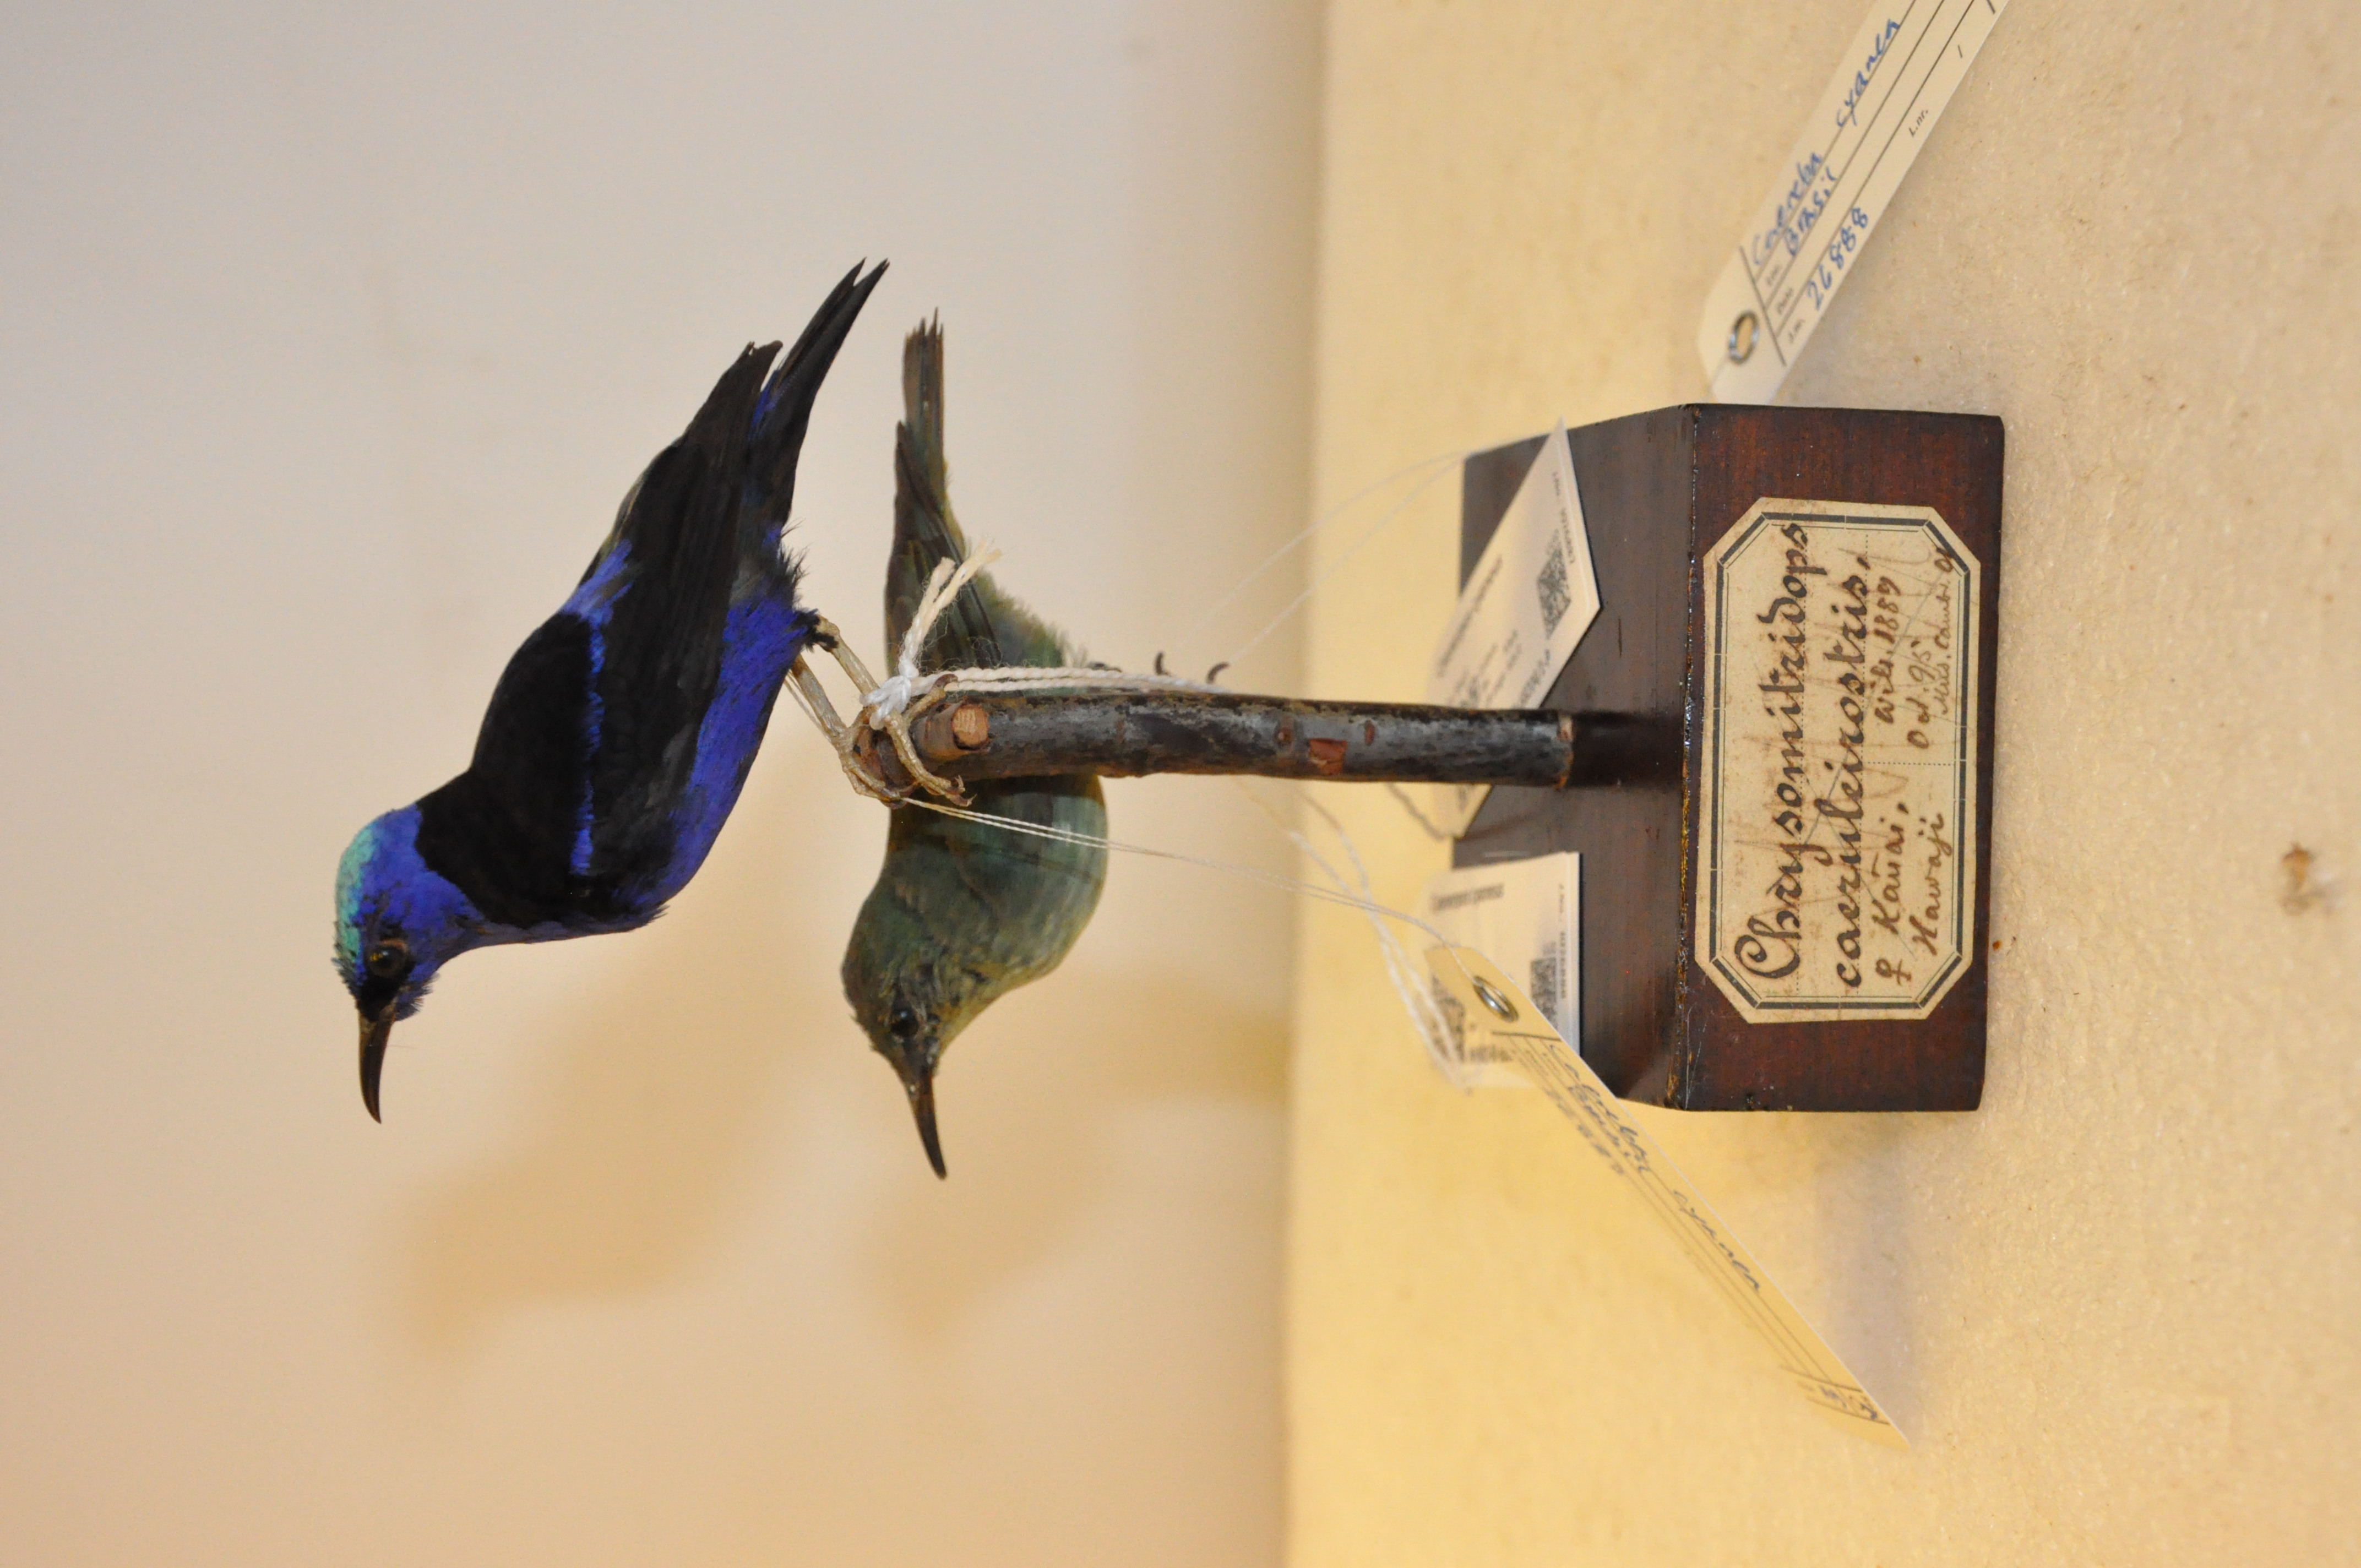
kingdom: Animalia
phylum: Chordata
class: Aves
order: Passeriformes
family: Thraupidae
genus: Cyanerpes
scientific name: Cyanerpes cyaneus
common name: Red-legged honeycreeper
